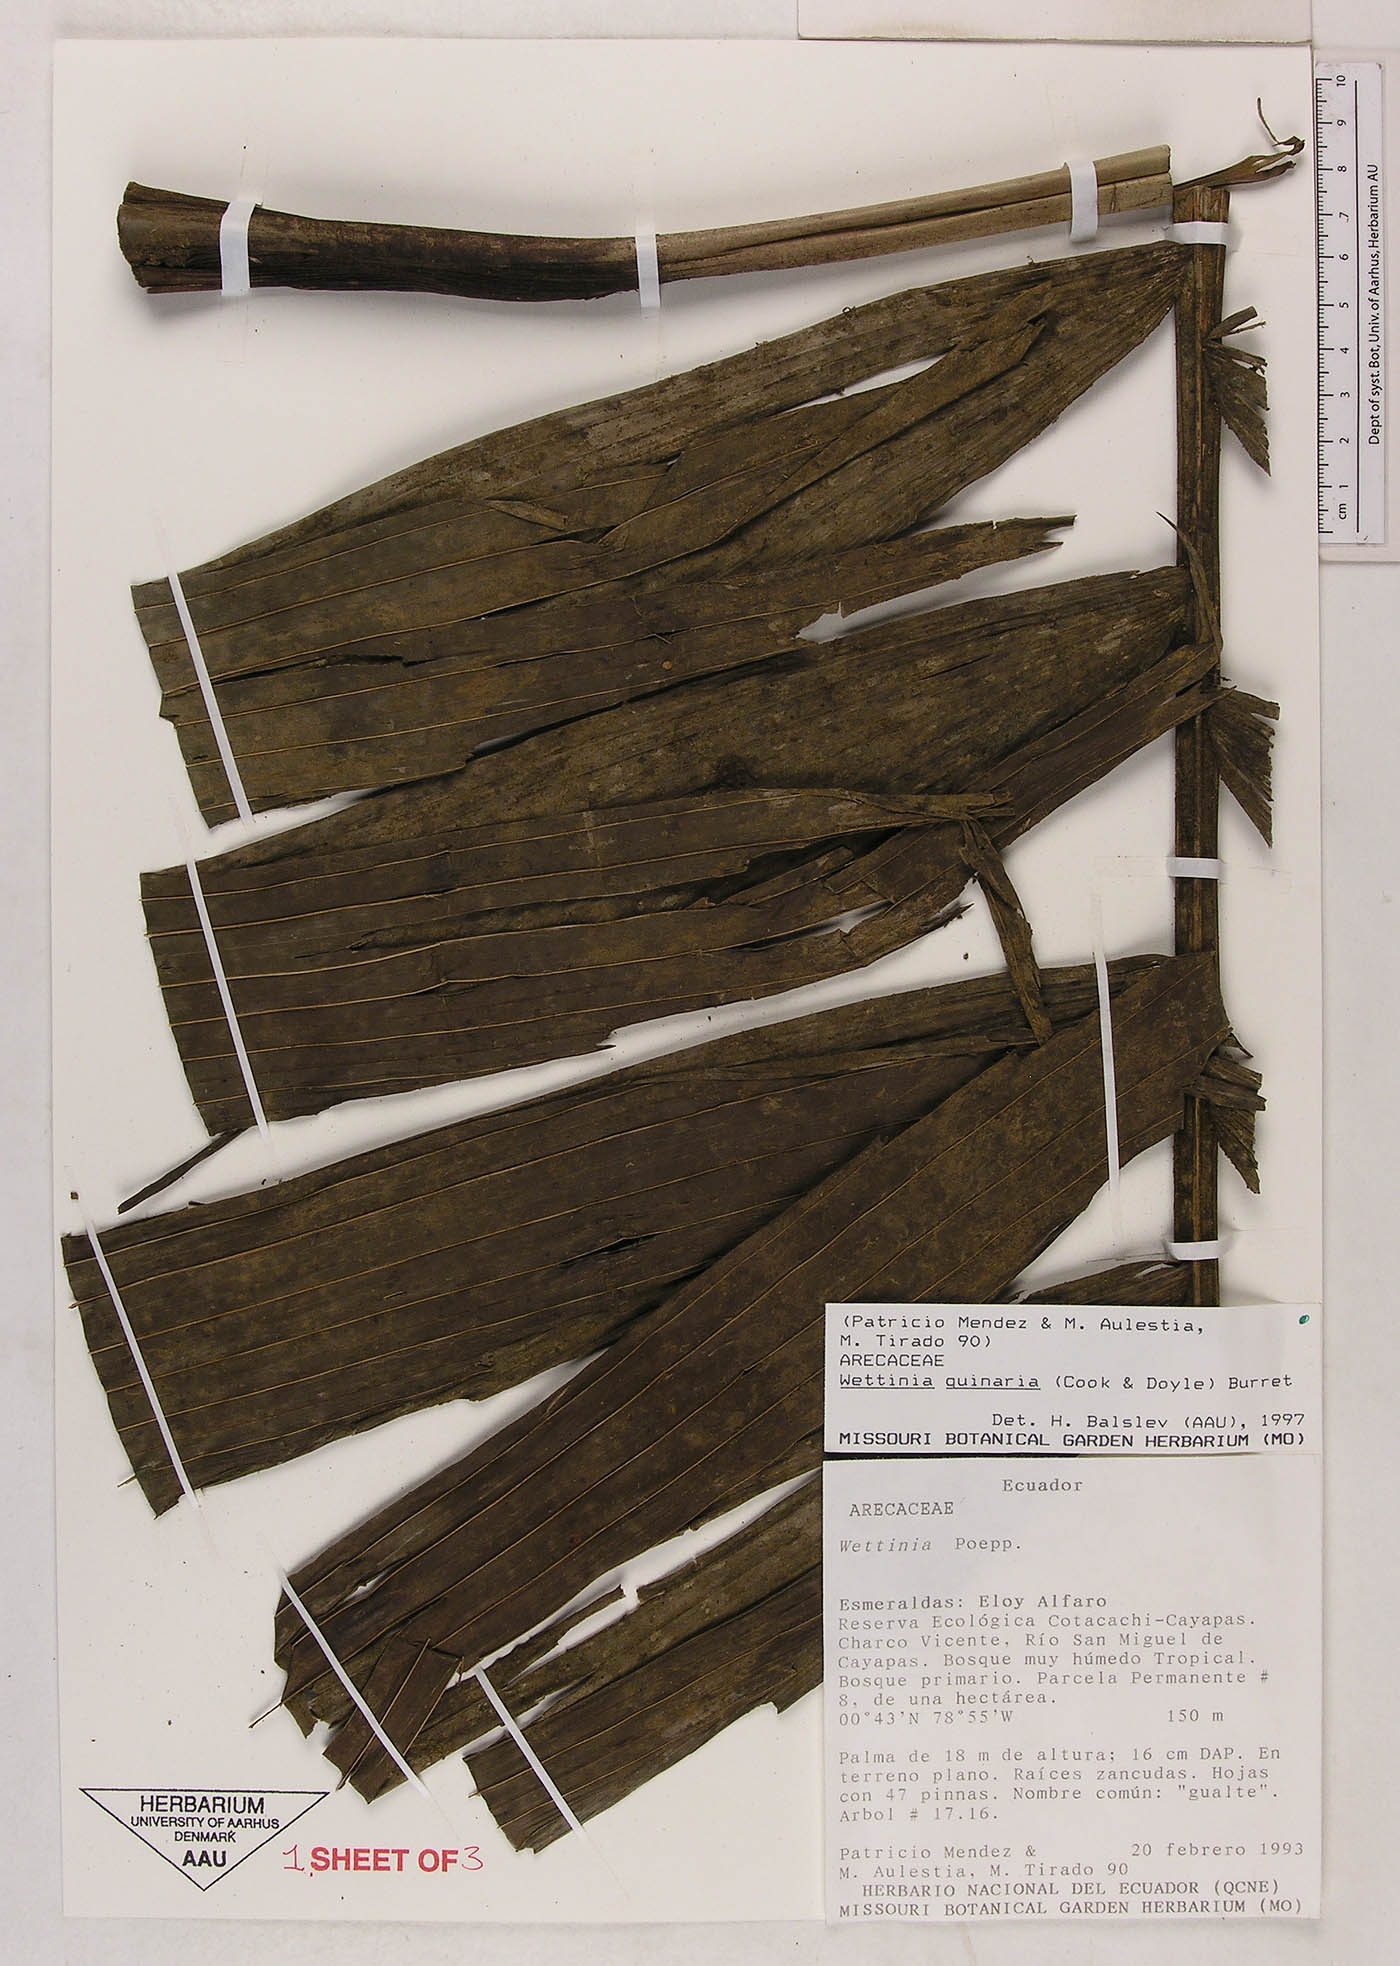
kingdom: Plantae
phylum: Tracheophyta
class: Liliopsida
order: Arecales
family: Arecaceae
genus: Wettinia
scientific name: Wettinia quinaria
